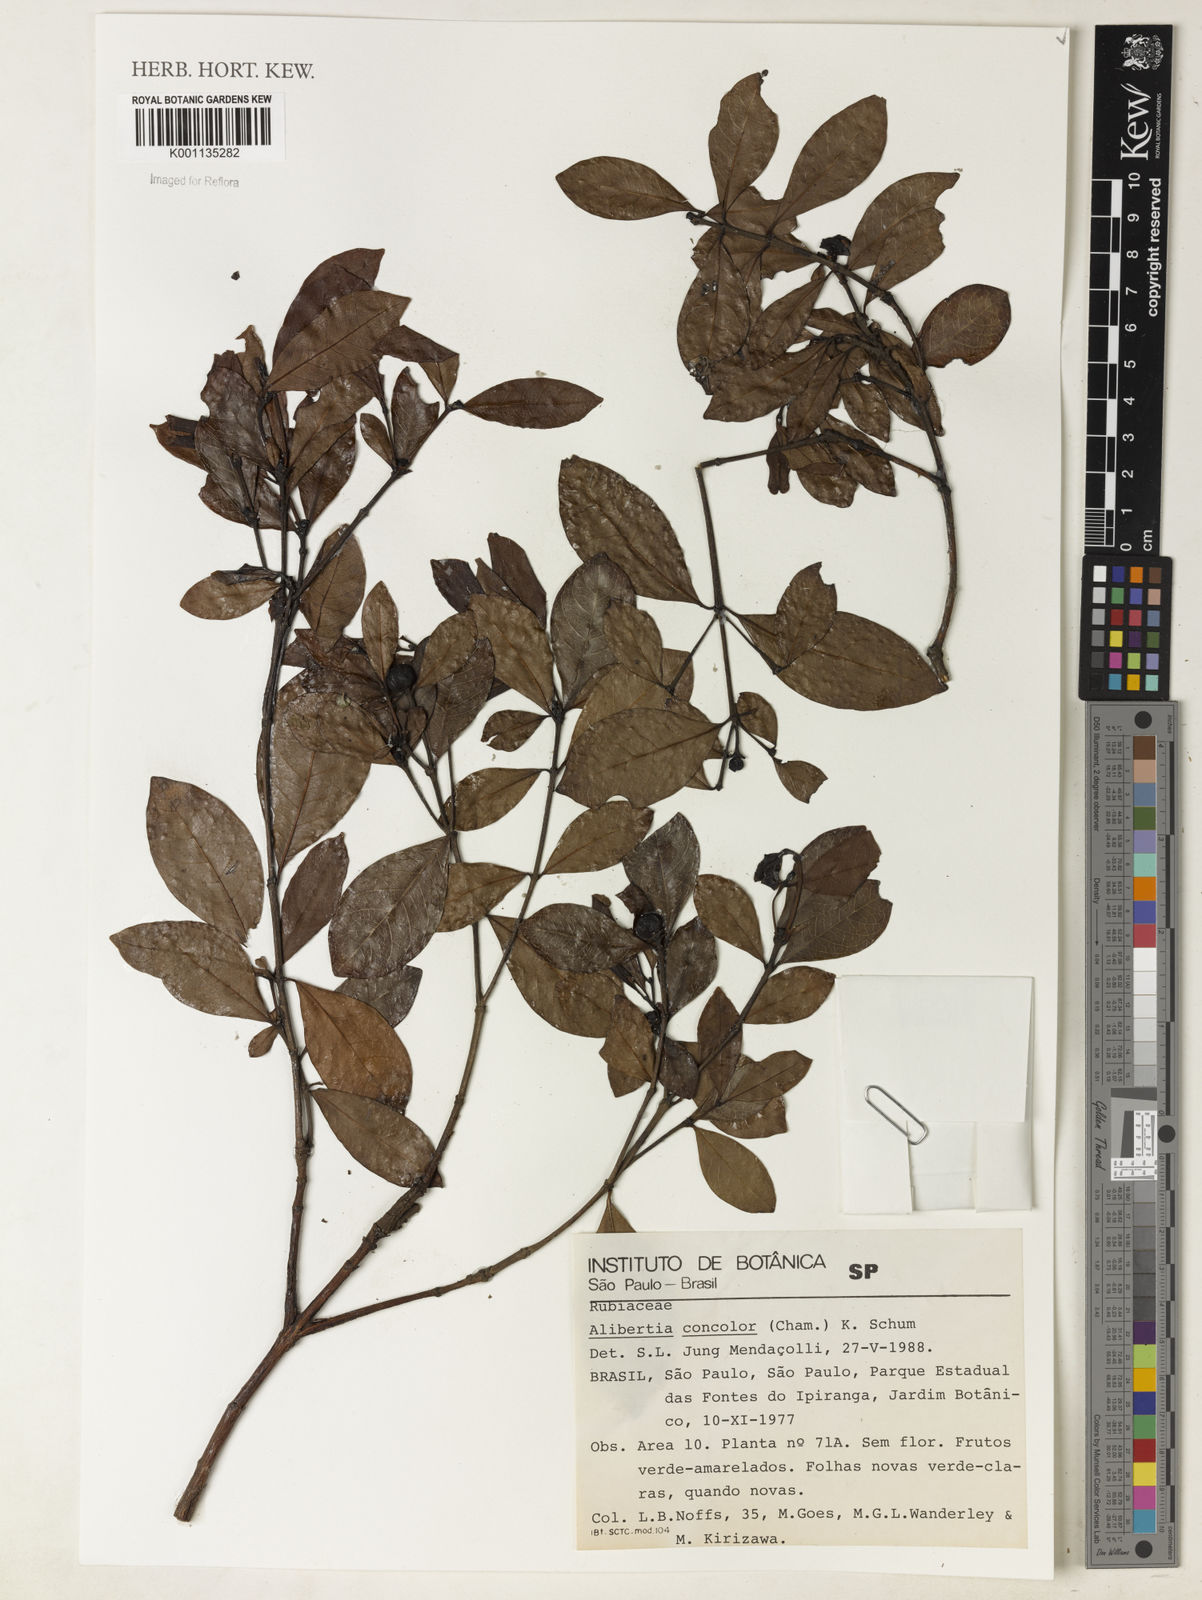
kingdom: Plantae
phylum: Tracheophyta
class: Magnoliopsida
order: Gentianales
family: Rubiaceae
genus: Cordiera
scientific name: Cordiera concolor
